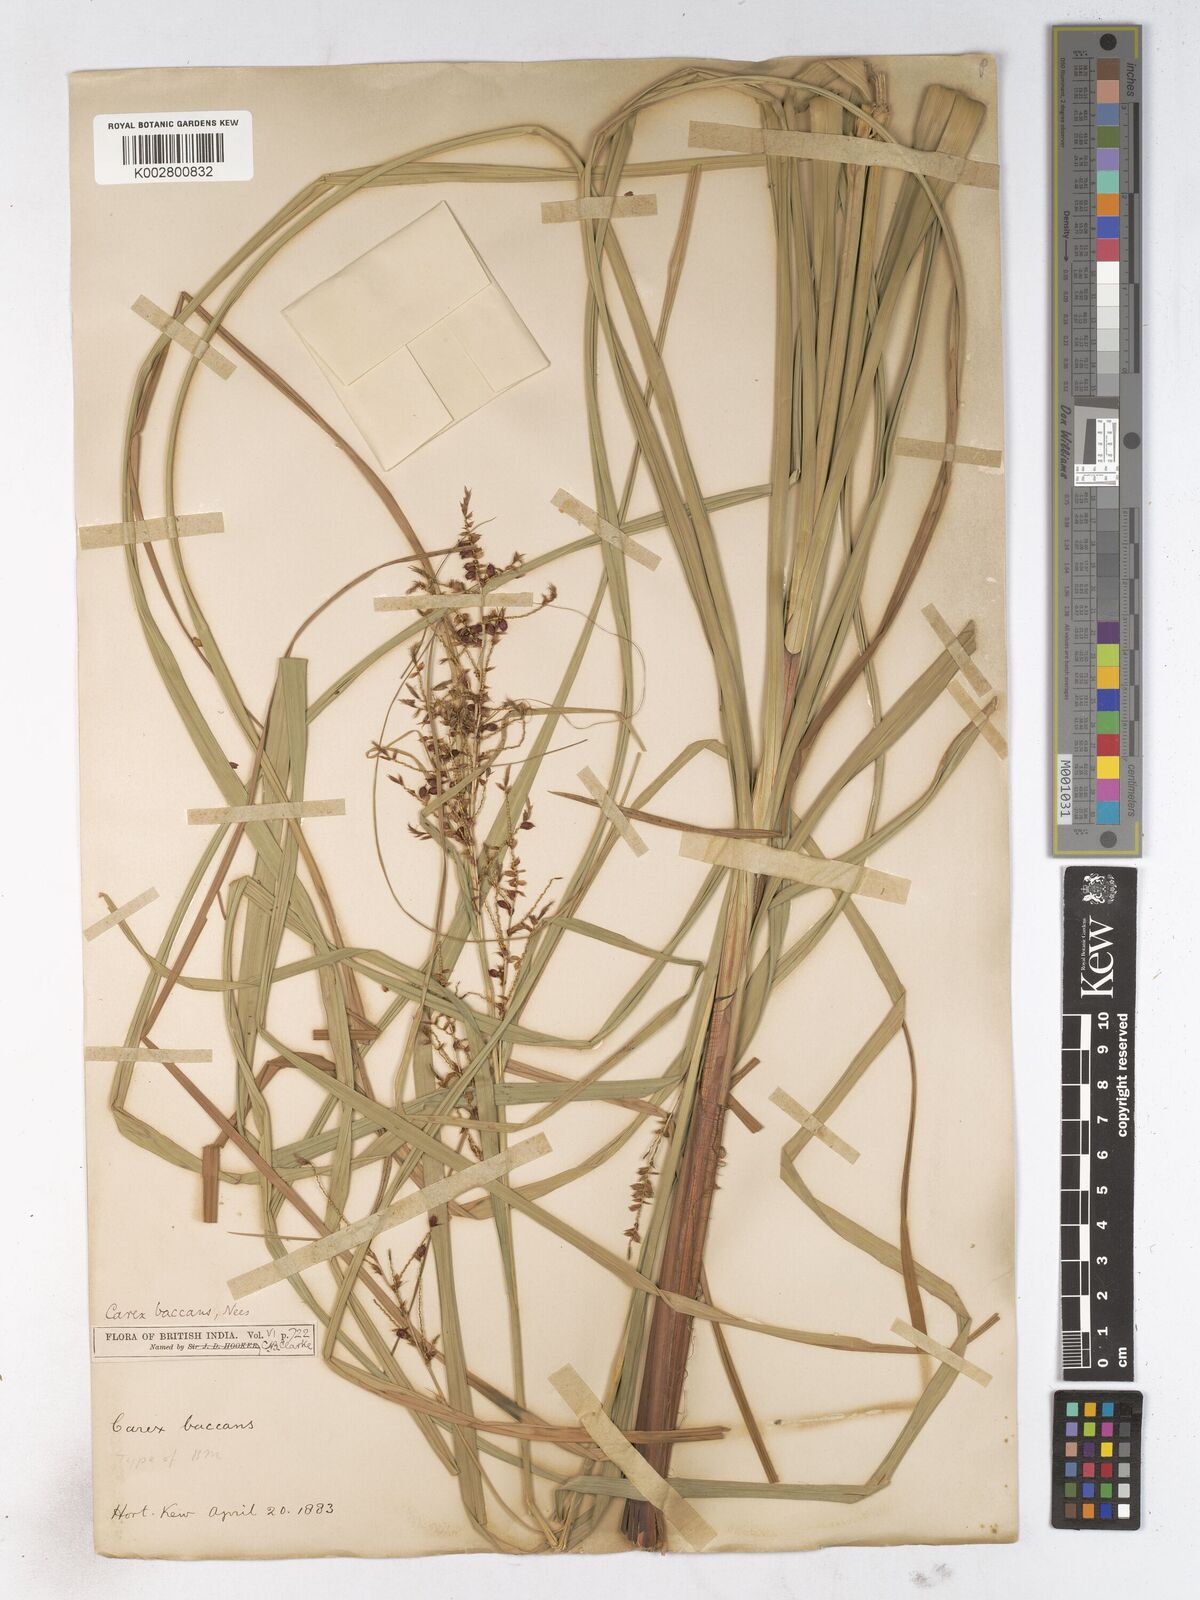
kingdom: Plantae
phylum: Tracheophyta
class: Liliopsida
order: Poales
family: Cyperaceae
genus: Carex
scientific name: Carex baccans
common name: Crimson seeded sedge
